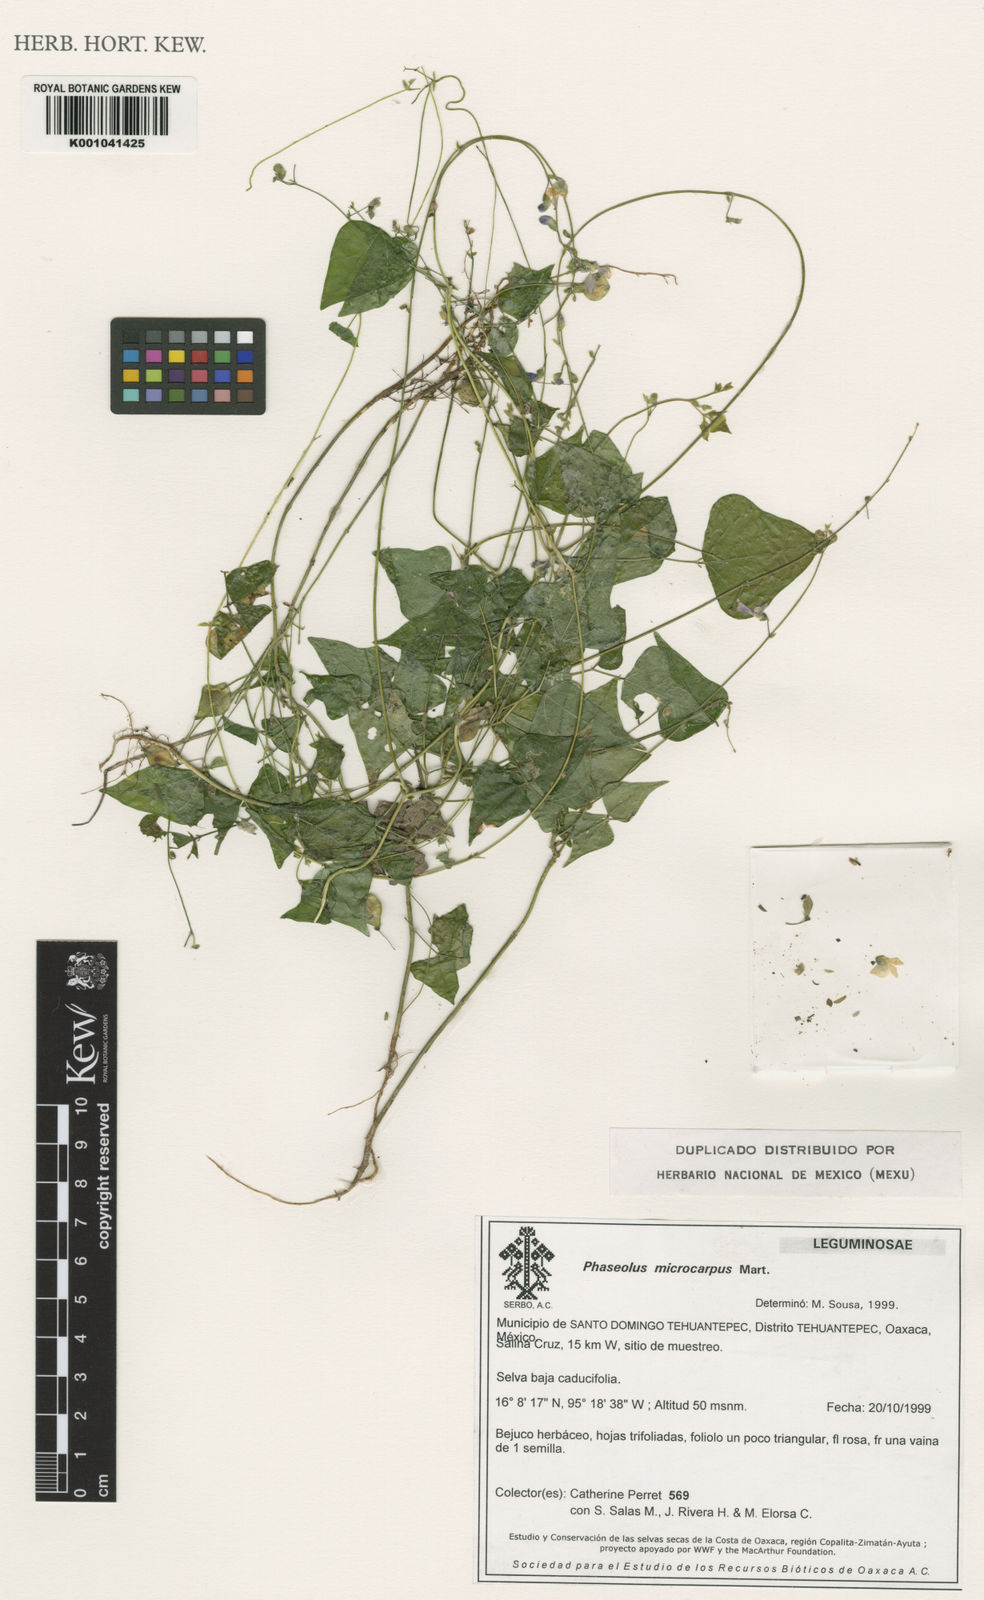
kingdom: Plantae
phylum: Tracheophyta
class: Magnoliopsida
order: Fabales
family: Fabaceae
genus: Phaseolus
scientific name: Phaseolus microcarpus
